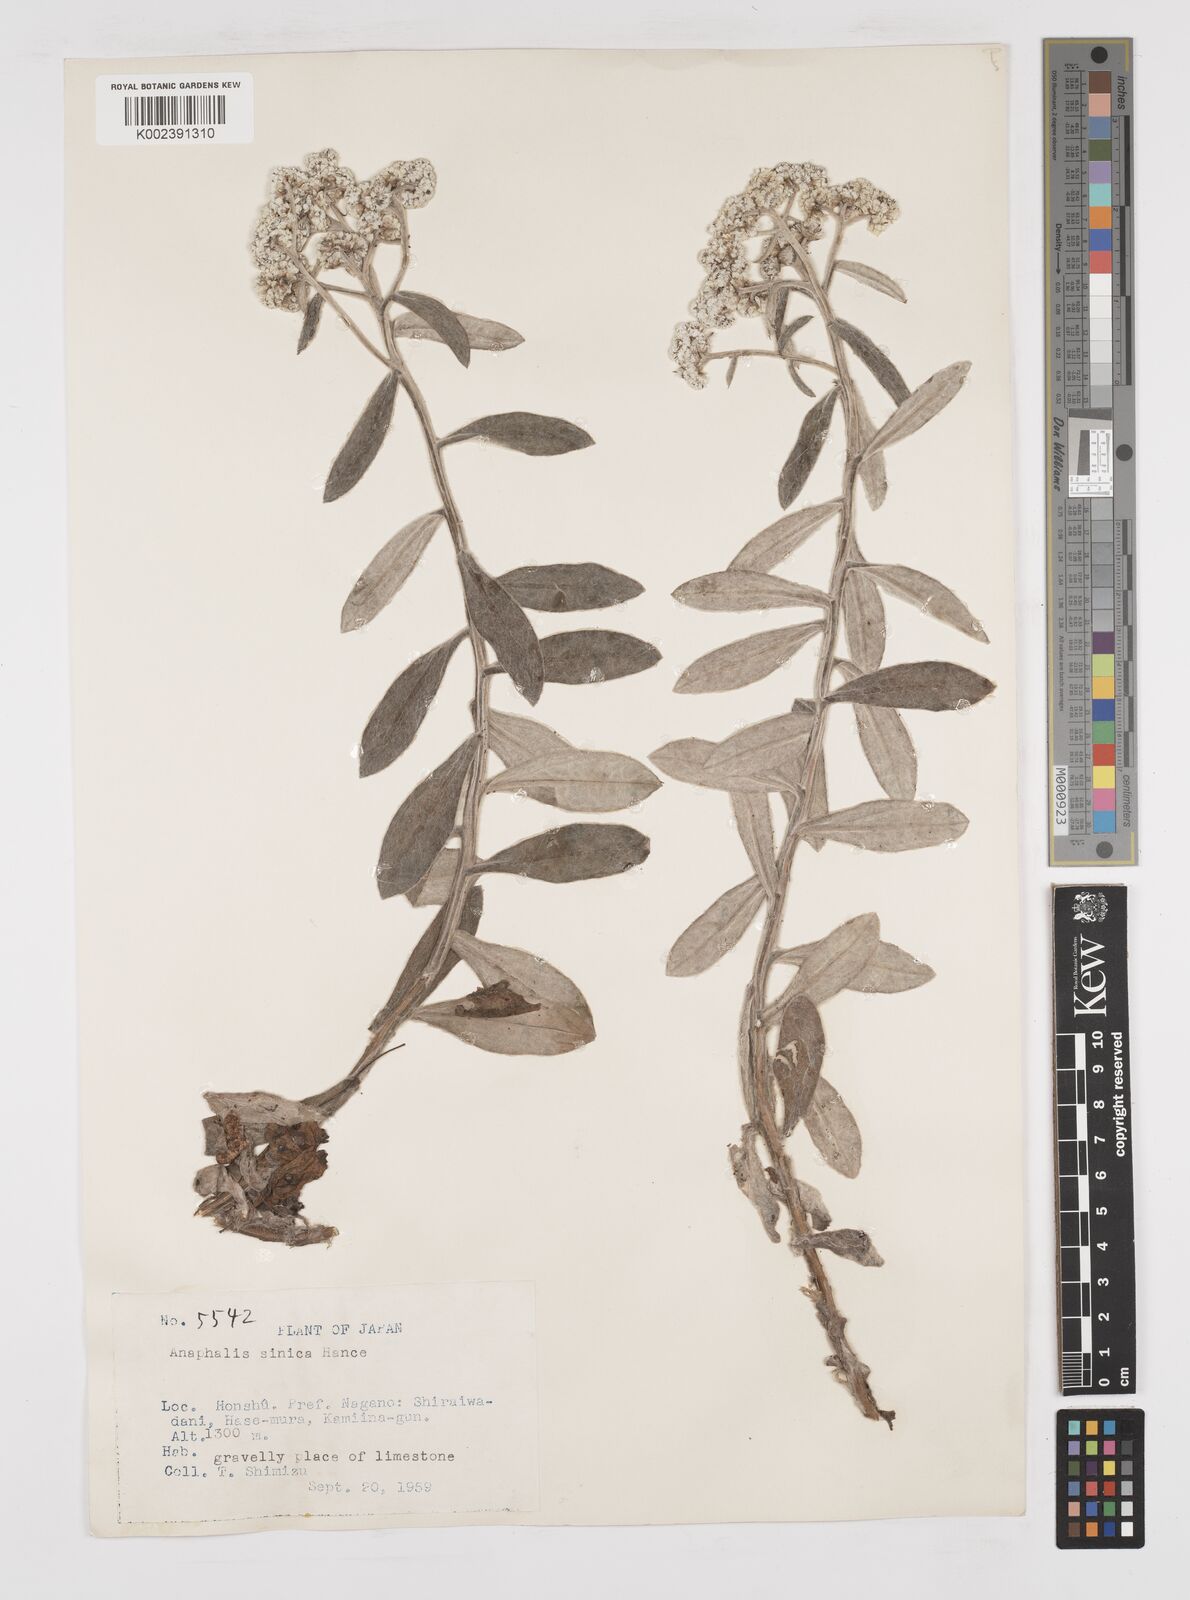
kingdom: Plantae
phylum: Tracheophyta
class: Magnoliopsida
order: Asterales
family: Asteraceae
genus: Anaphalis
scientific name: Anaphalis sinica
